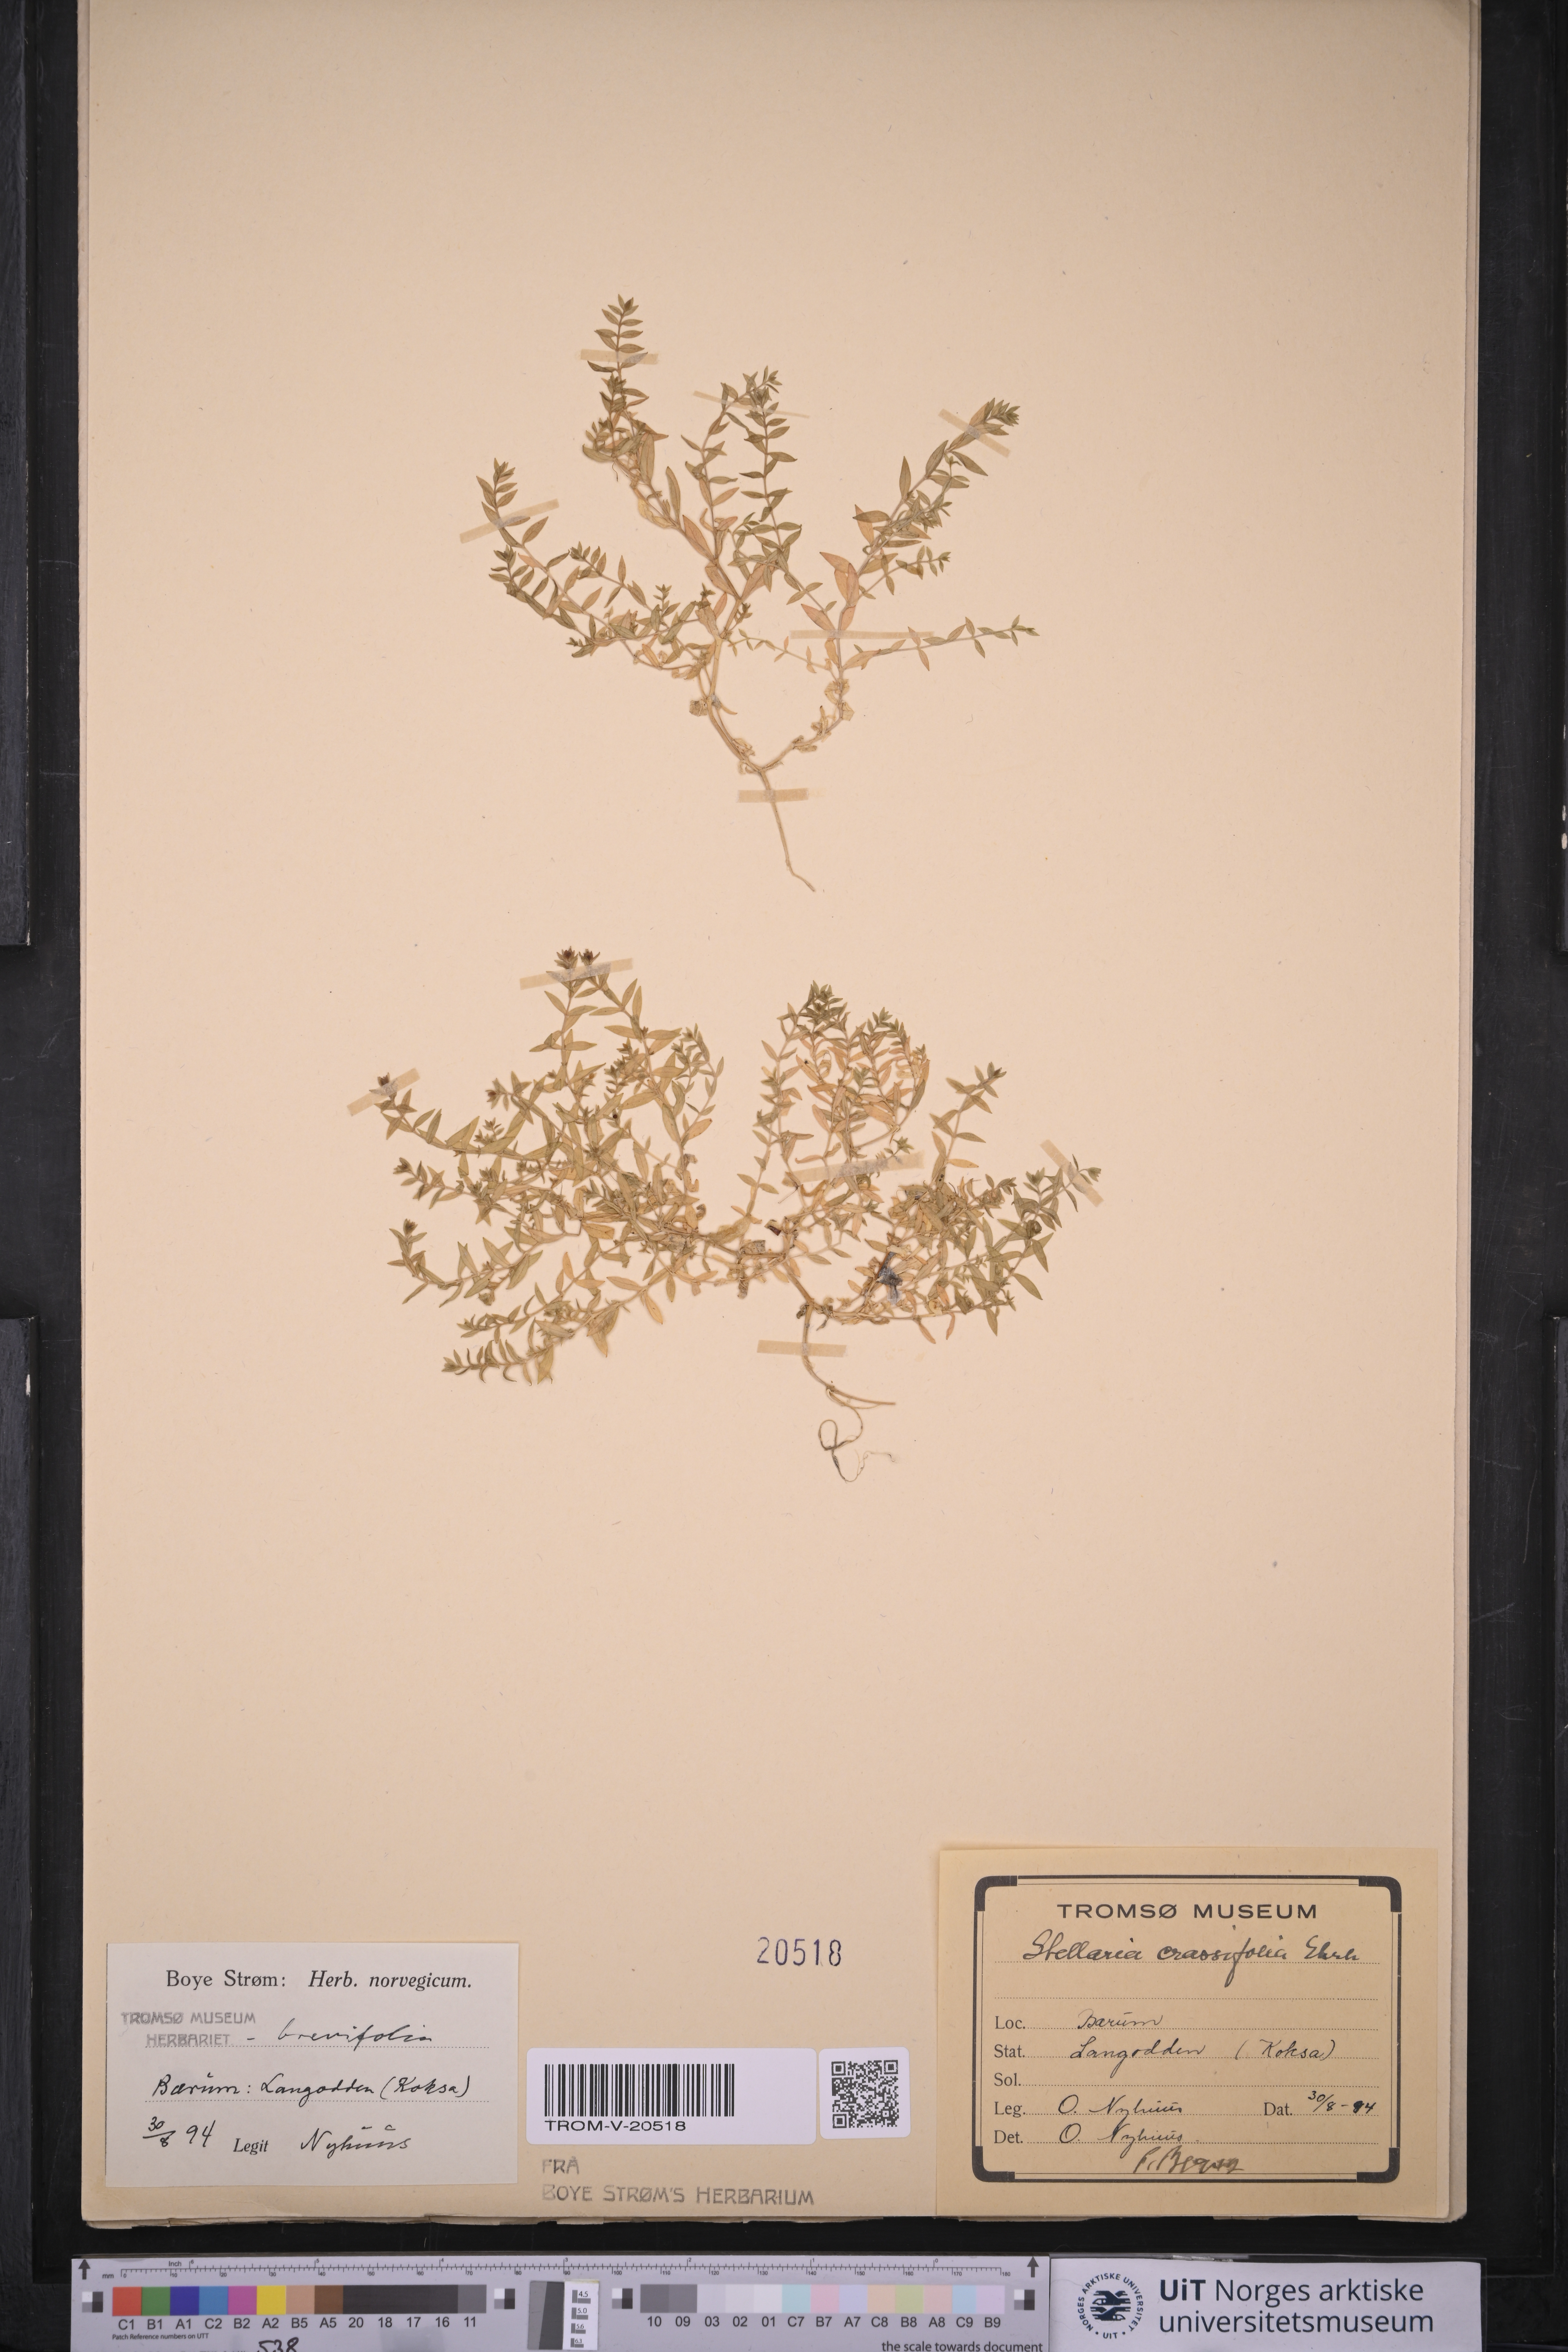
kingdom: Plantae
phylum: Tracheophyta
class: Magnoliopsida
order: Caryophyllales
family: Caryophyllaceae
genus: Stellaria
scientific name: Stellaria crassifolia
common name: Fleshy starwort
